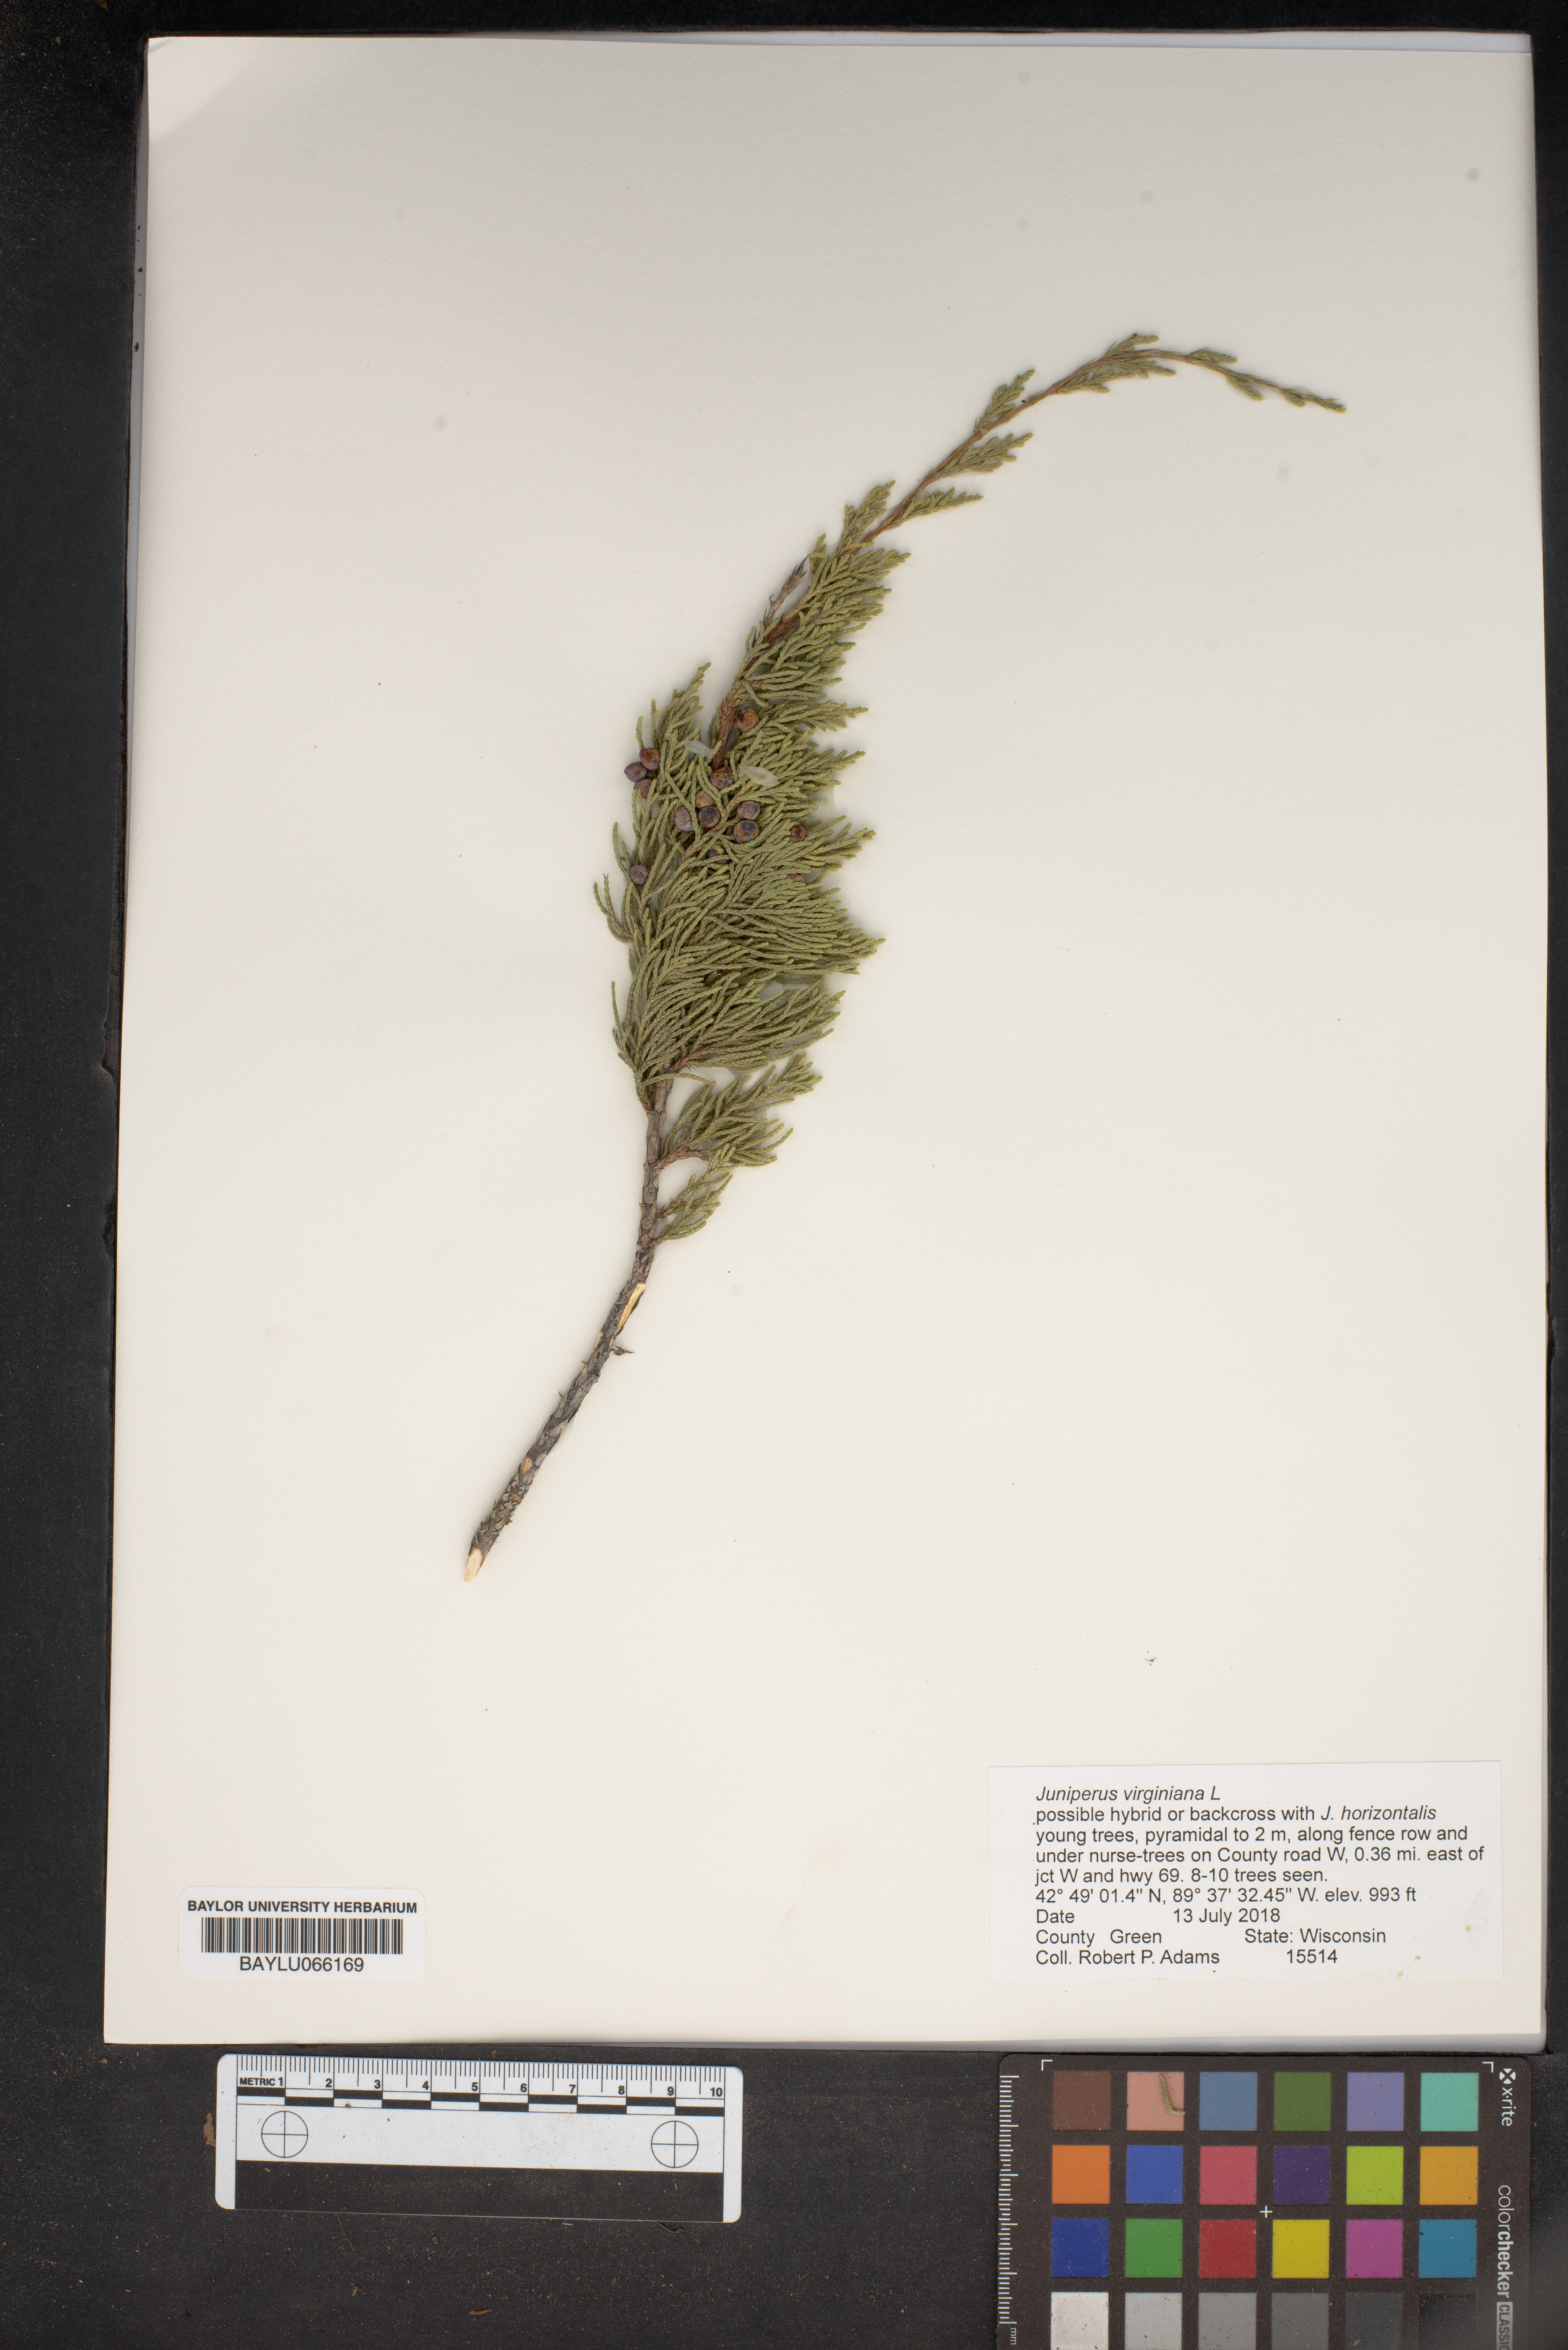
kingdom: Plantae
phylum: Tracheophyta
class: Pinopsida
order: Pinales
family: Cupressaceae
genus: Juniperus
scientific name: Juniperus virginiana
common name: Red juniper
